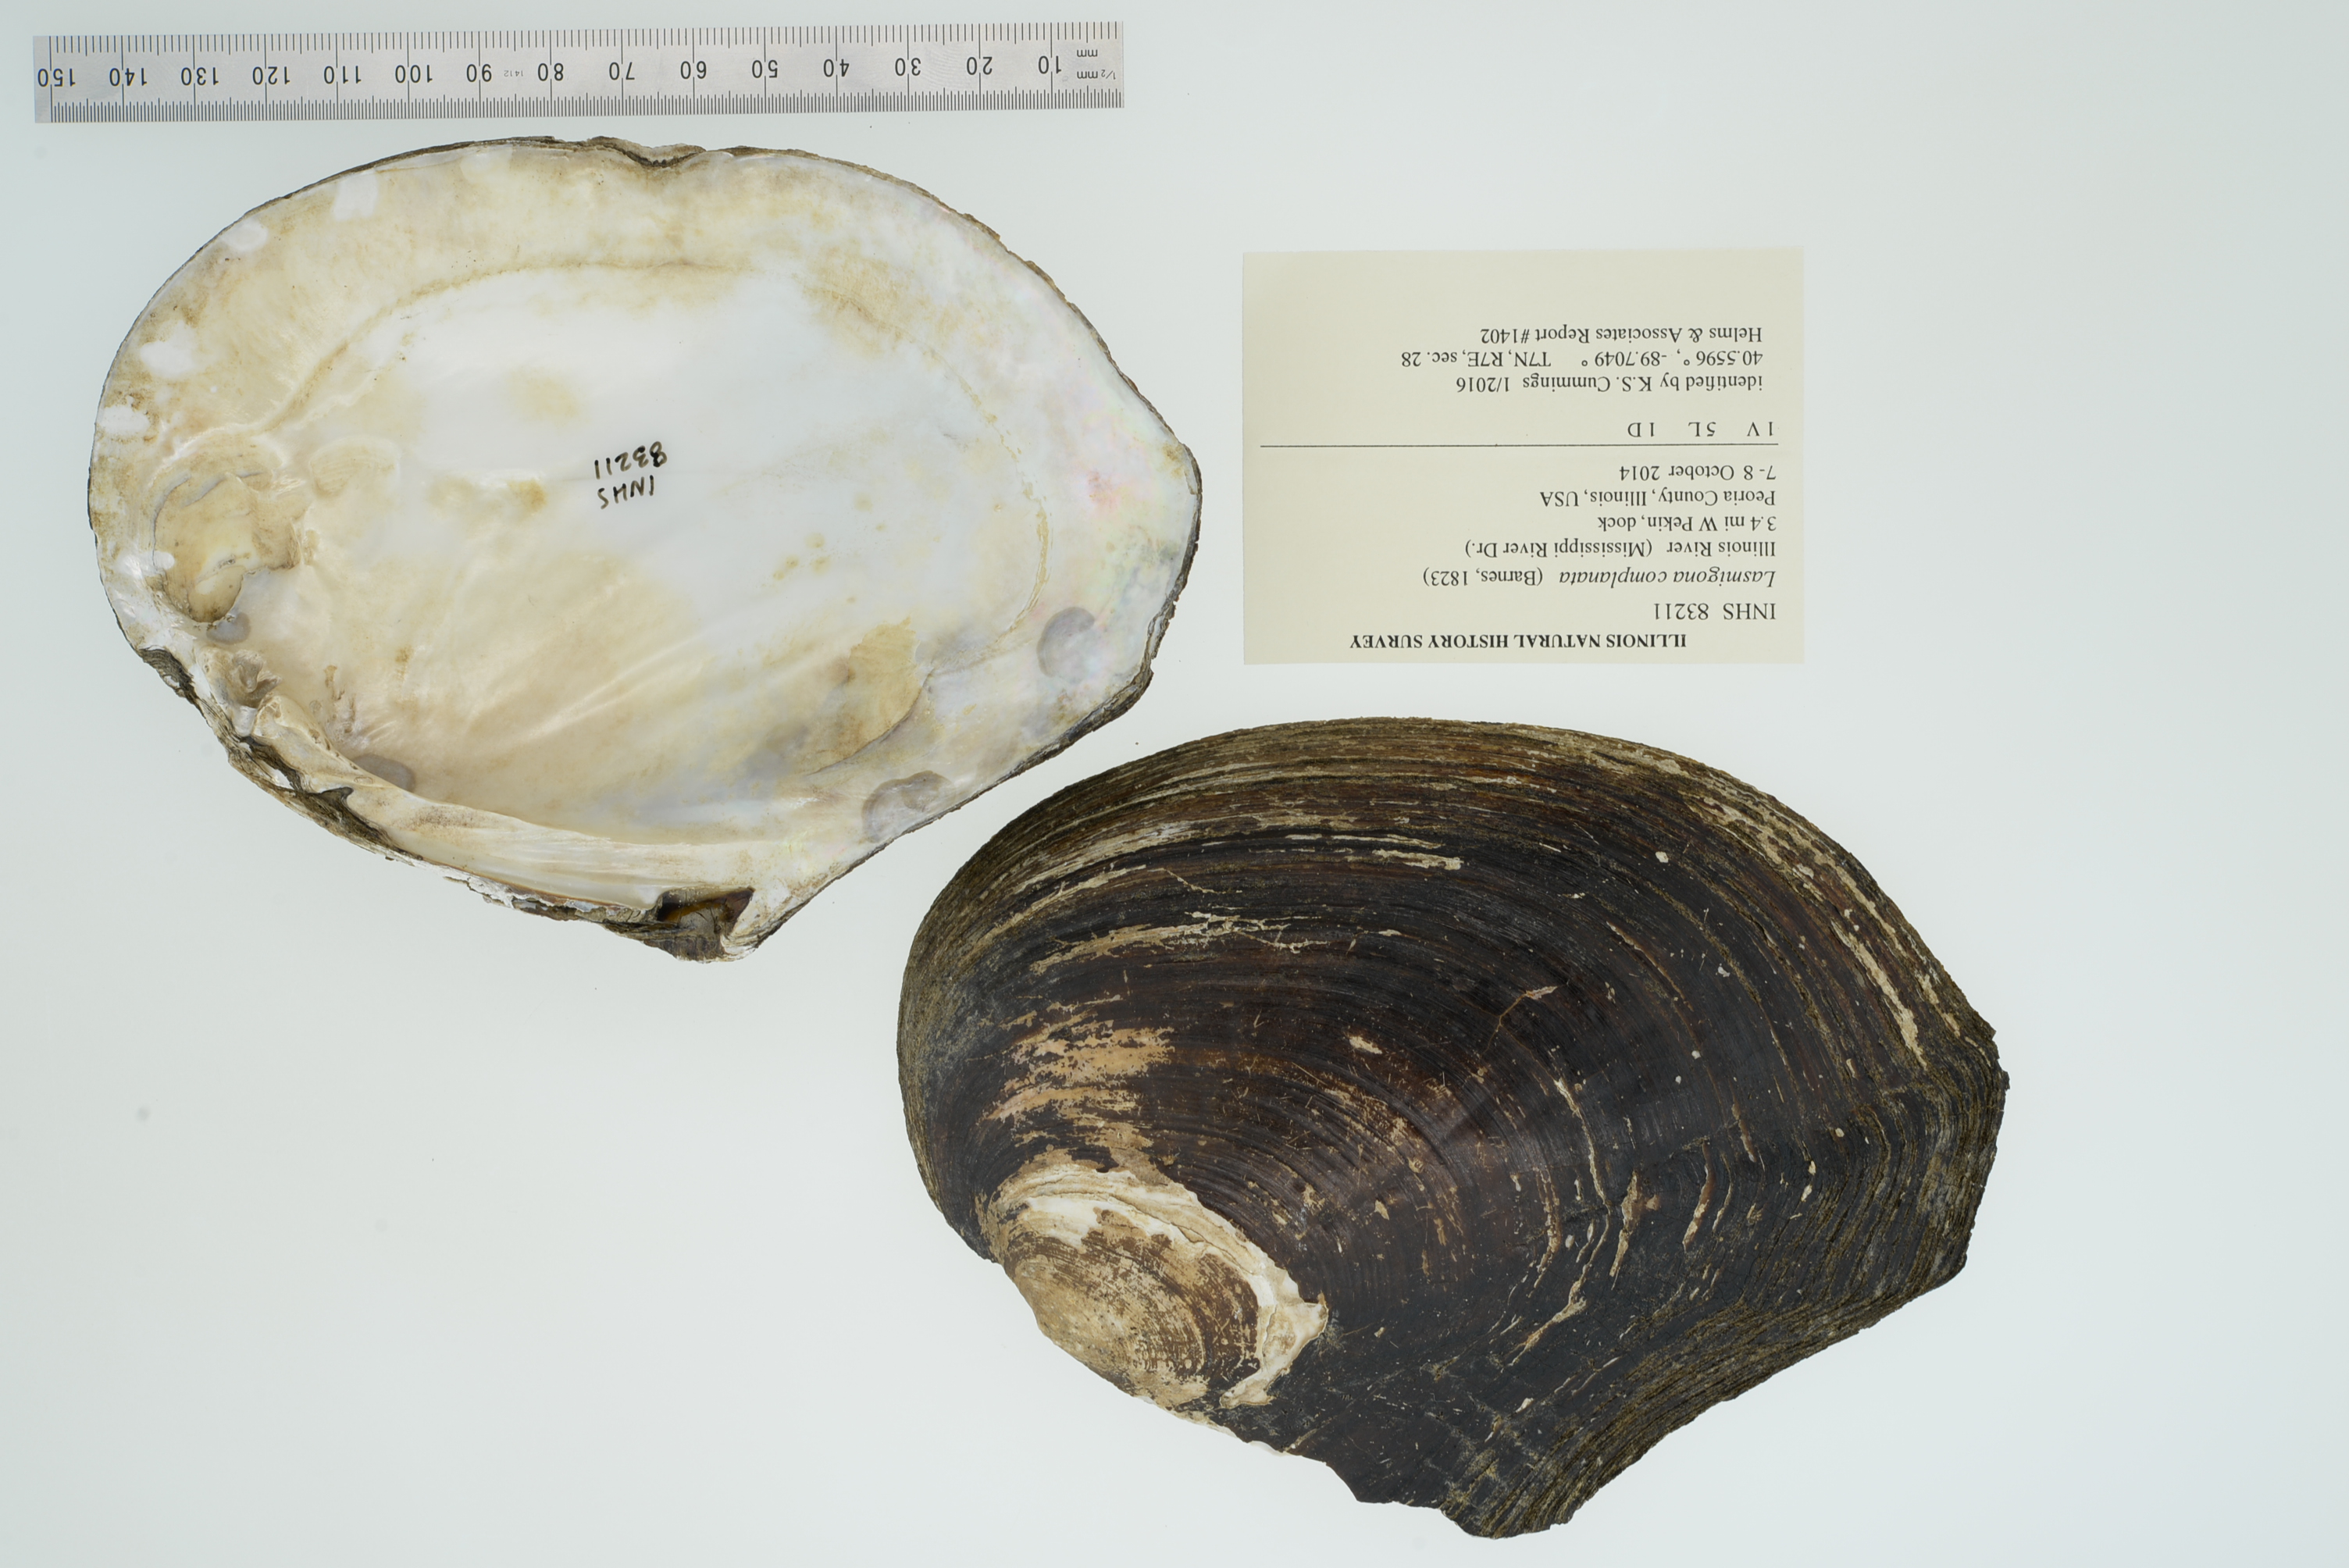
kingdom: Animalia
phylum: Mollusca
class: Bivalvia
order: Unionida
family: Unionidae
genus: Lasmigona
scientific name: Lasmigona complanata
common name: White heelsplitter
